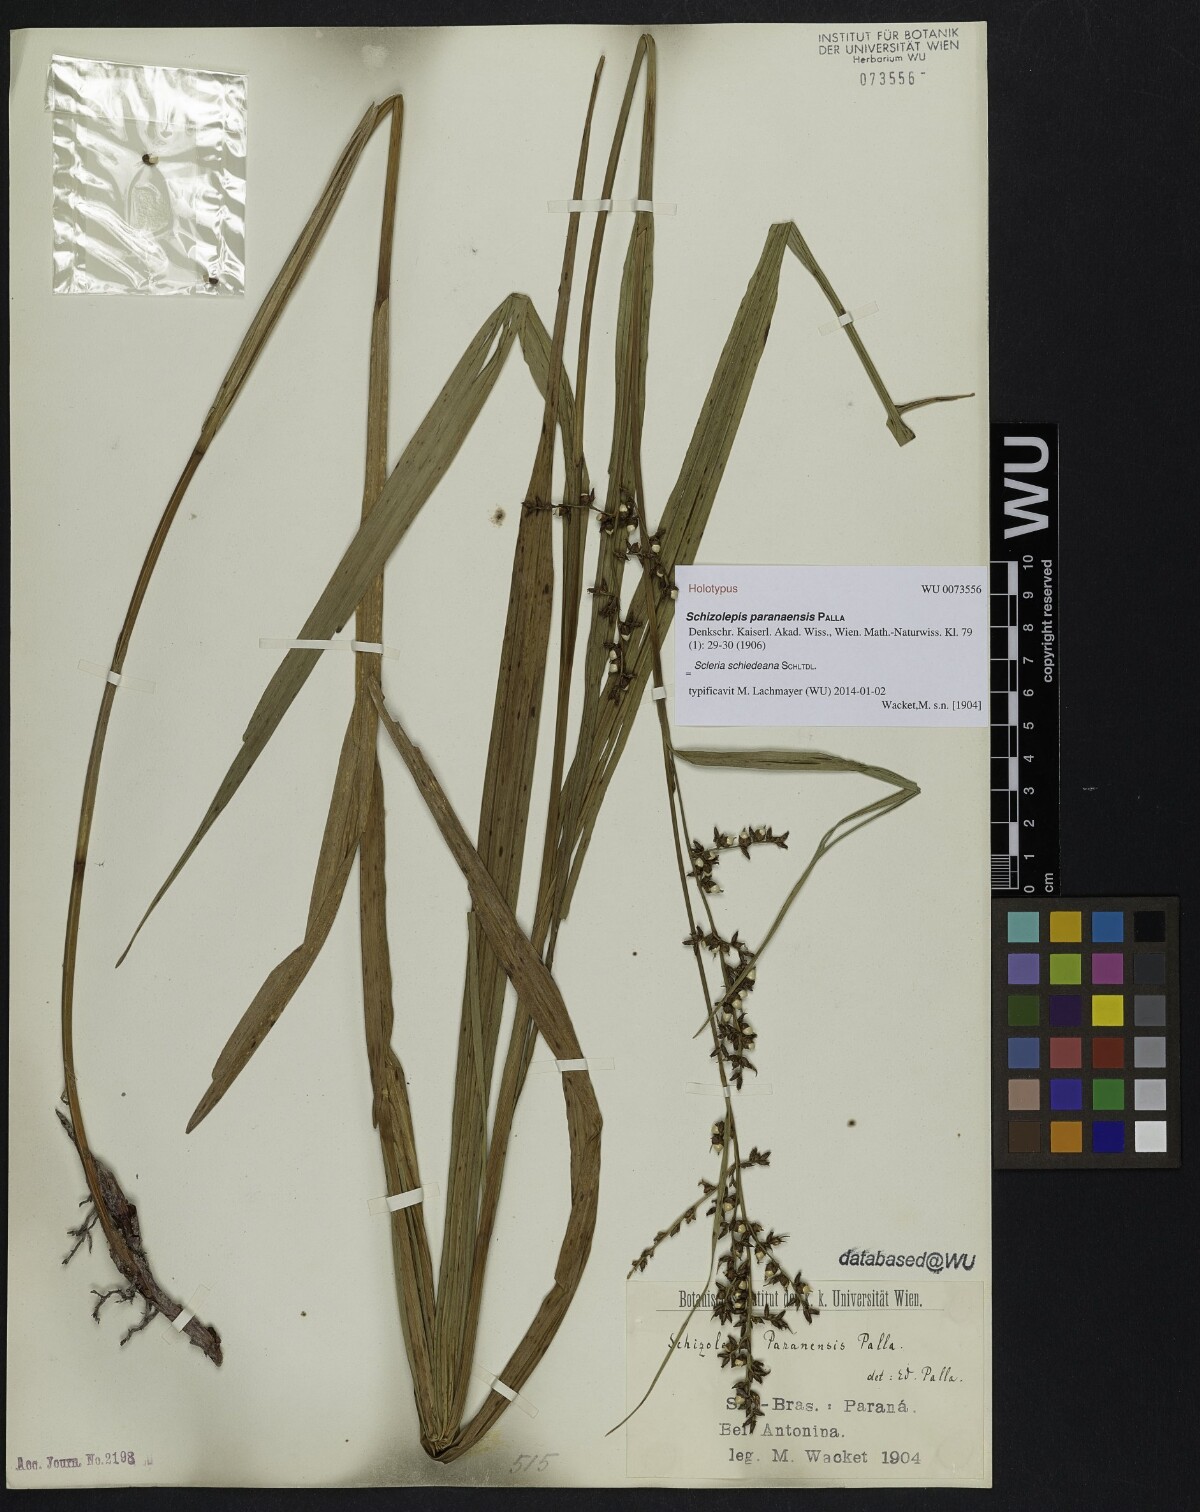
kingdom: Plantae
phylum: Tracheophyta
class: Liliopsida
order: Poales
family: Cyperaceae
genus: Scleria
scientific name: Scleria schiedeana
